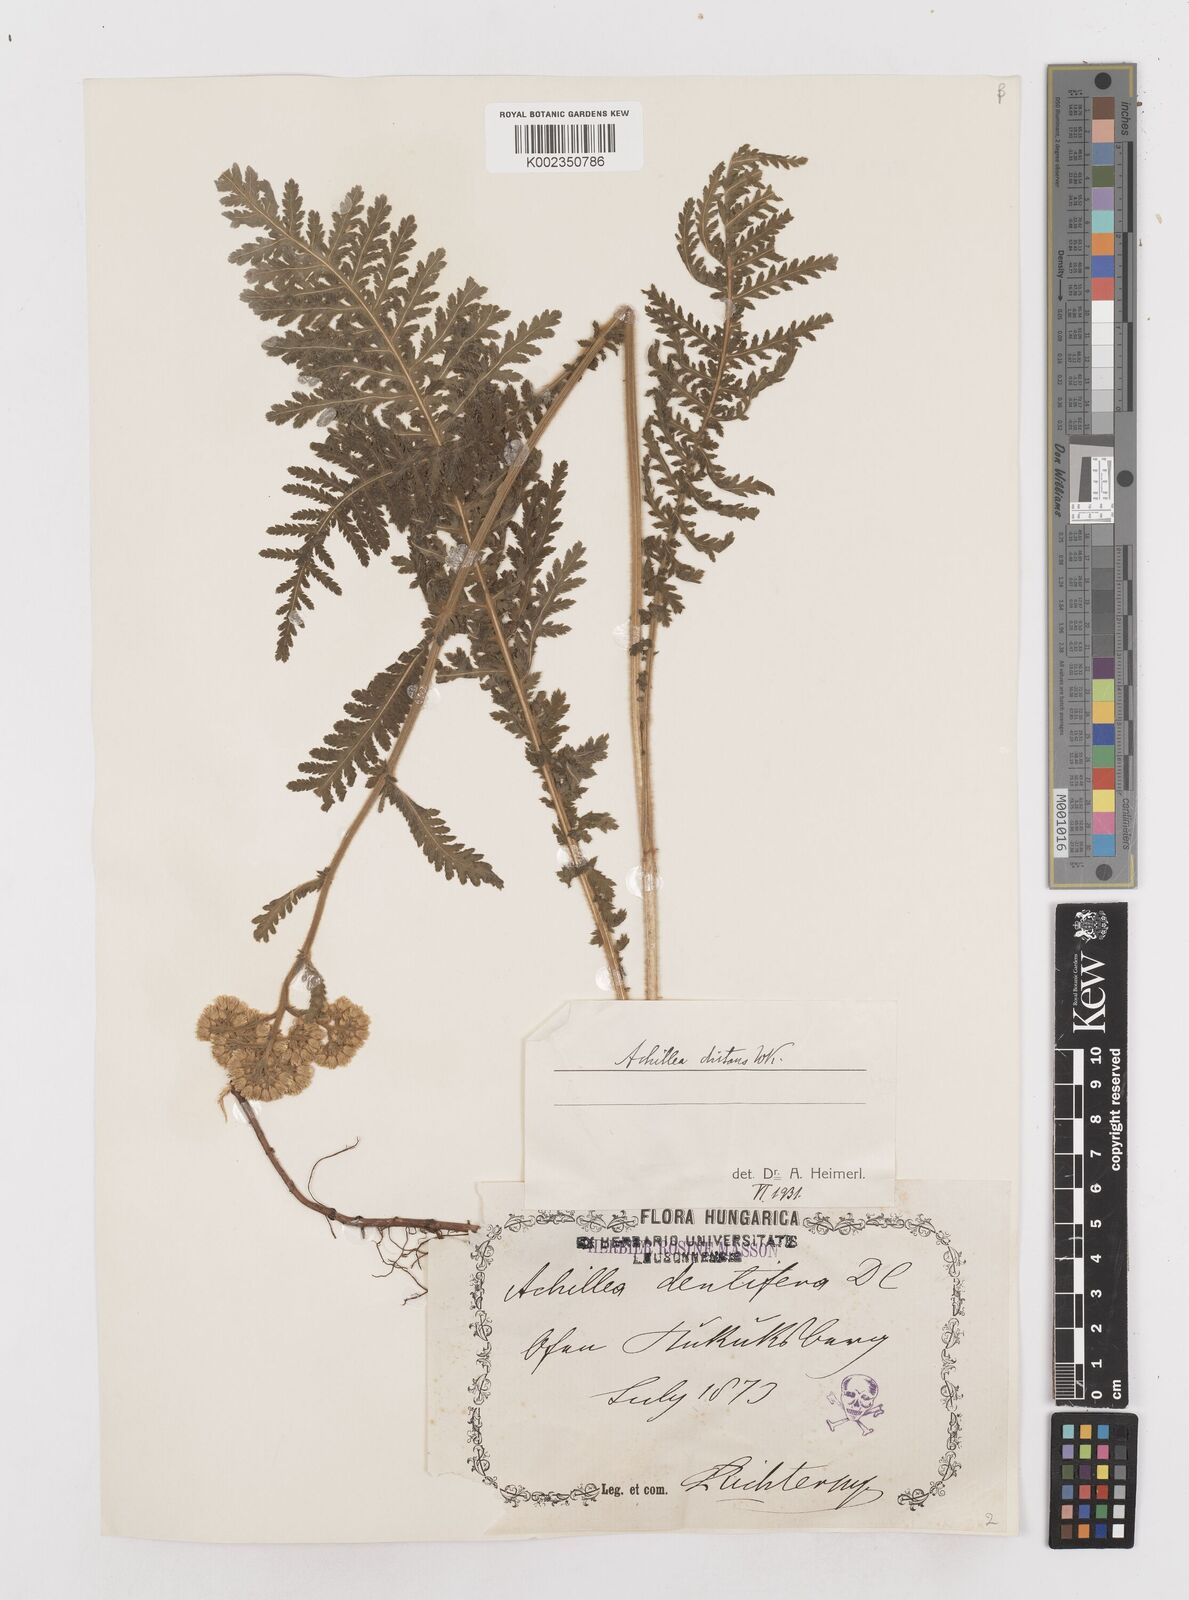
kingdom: Plantae
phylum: Tracheophyta
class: Magnoliopsida
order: Asterales
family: Asteraceae
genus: Achillea
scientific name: Achillea distans
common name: Tall yarrow
